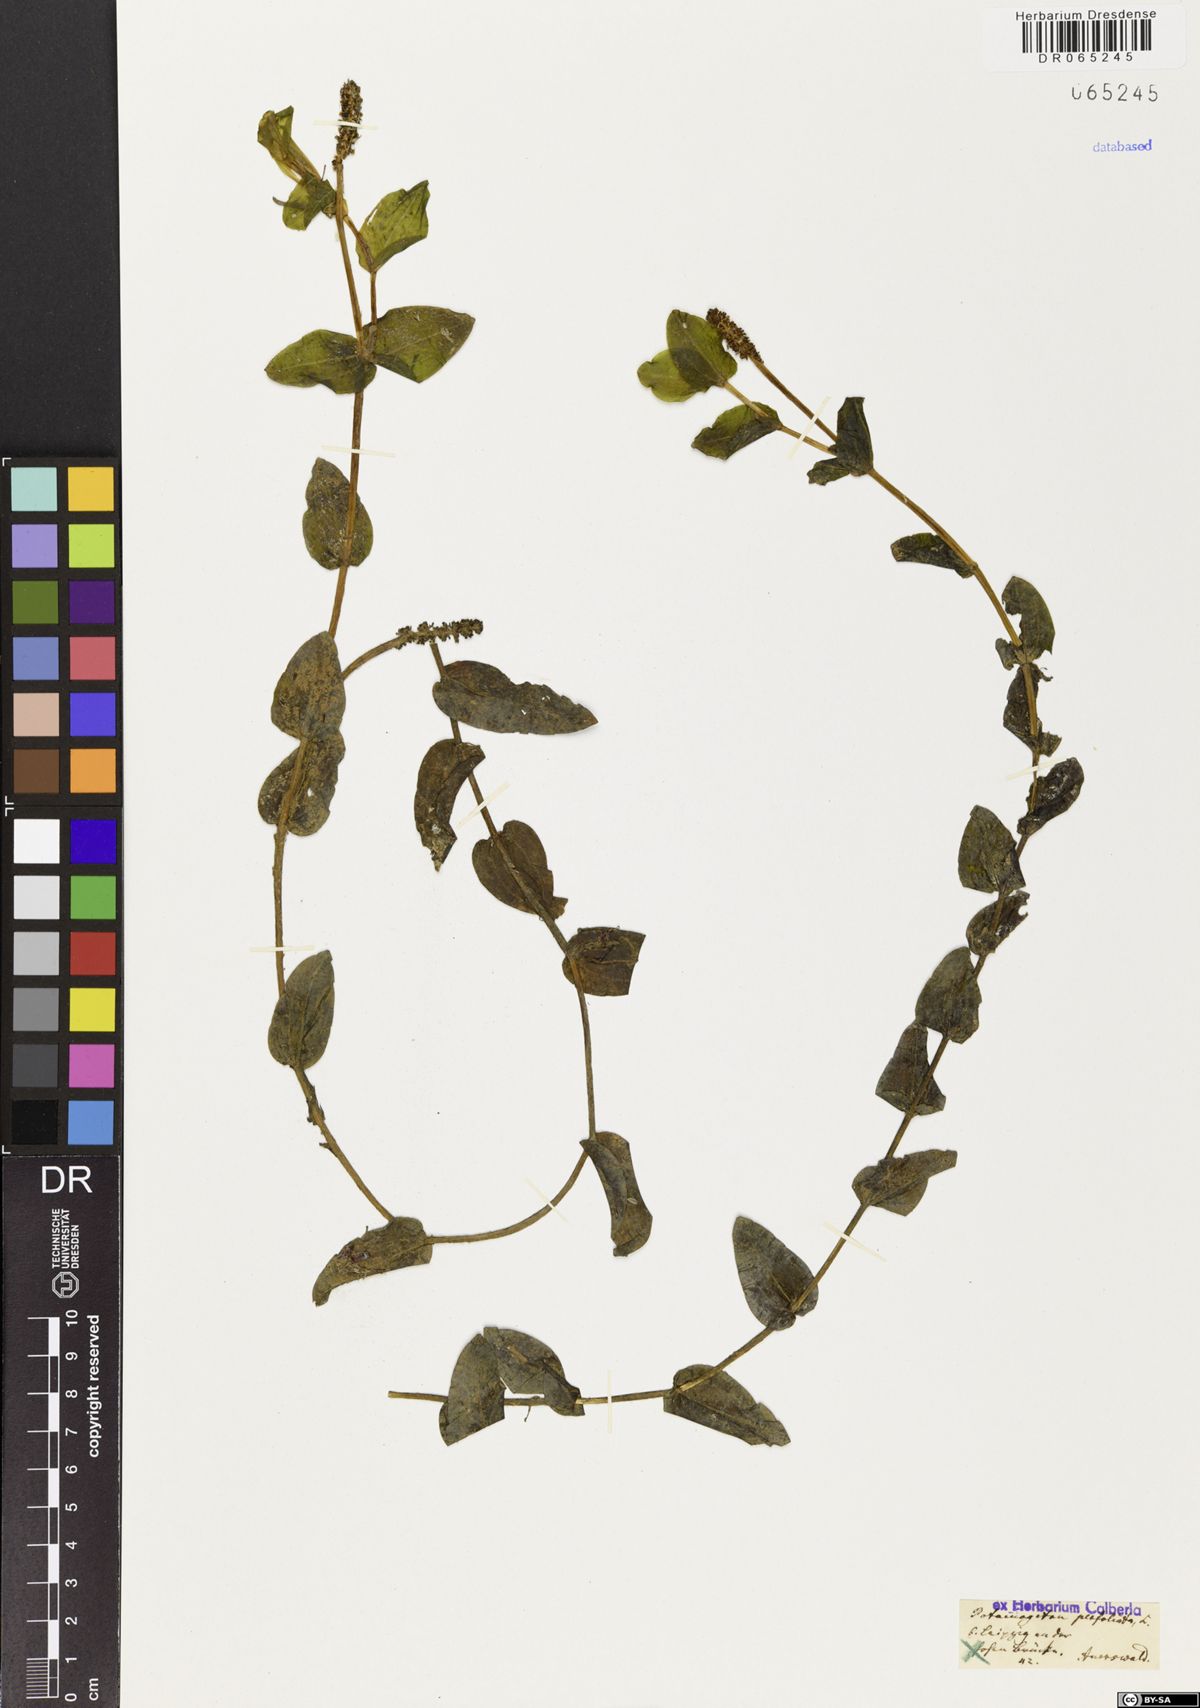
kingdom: Plantae
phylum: Tracheophyta
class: Liliopsida
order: Alismatales
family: Potamogetonaceae
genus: Potamogeton
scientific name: Potamogeton perfoliatus
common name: Perfoliate pondweed
